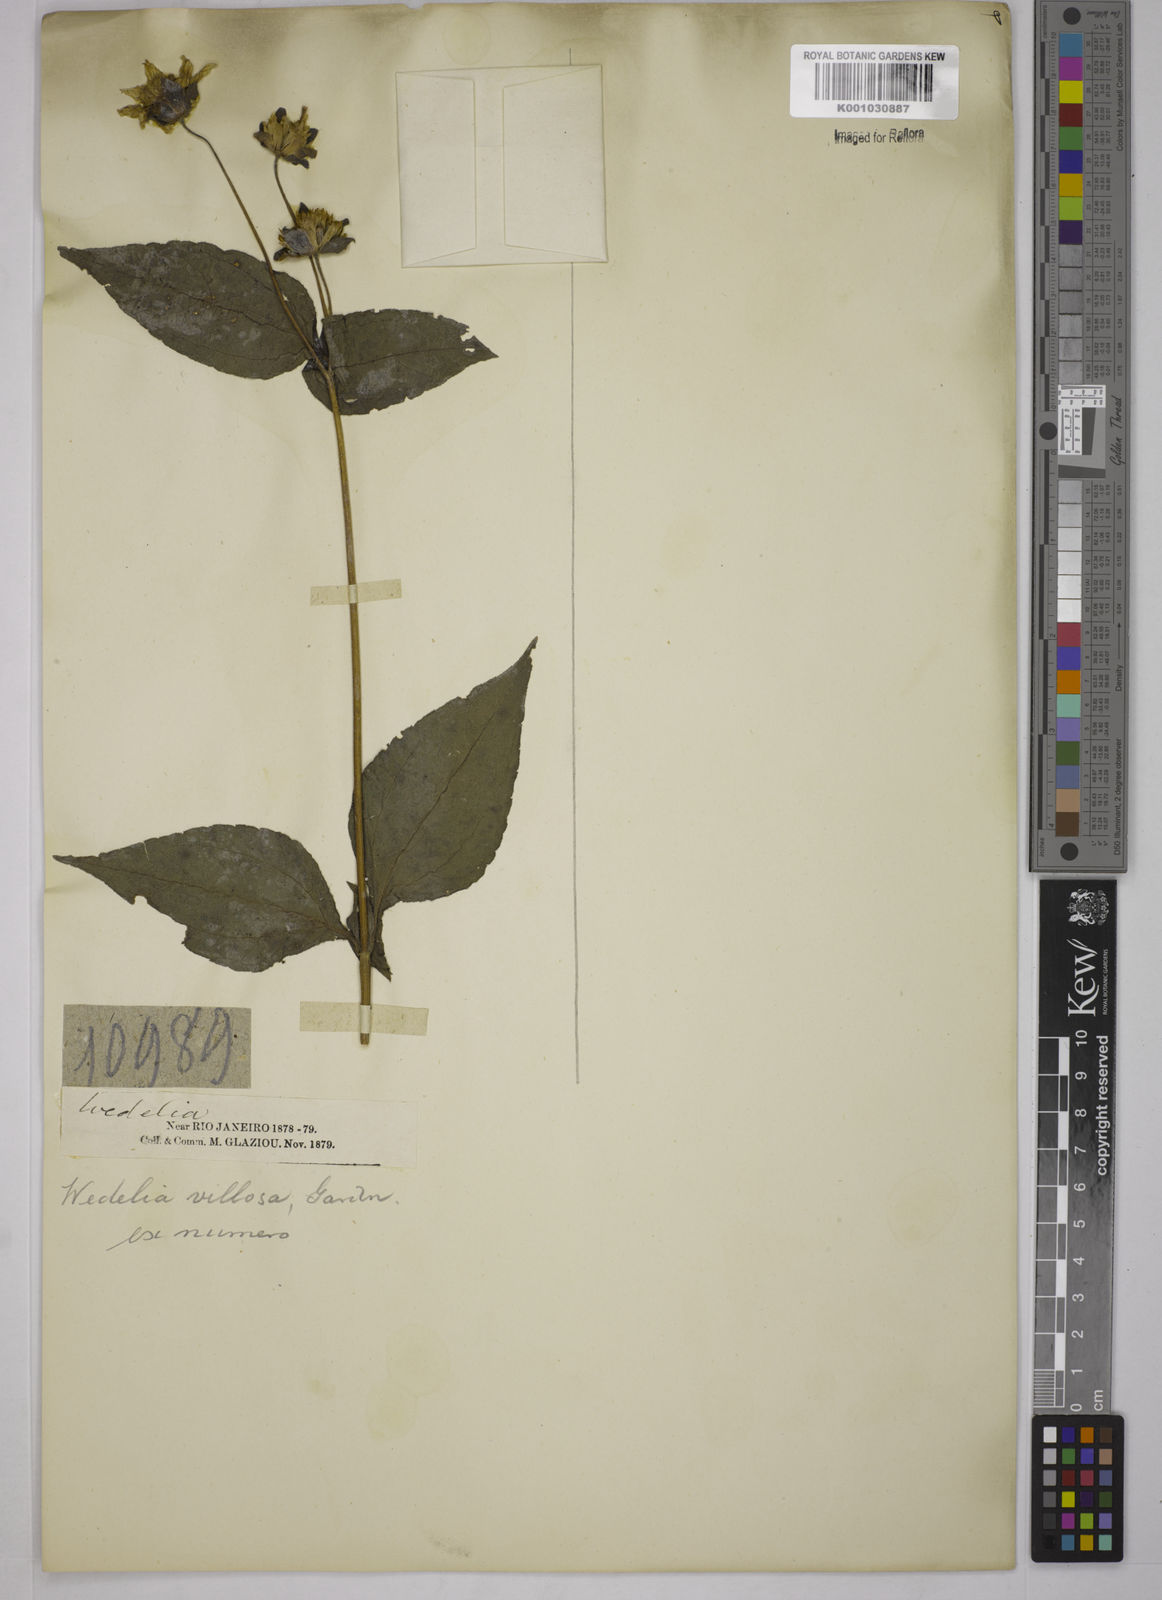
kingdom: Plantae
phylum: Tracheophyta
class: Magnoliopsida
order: Asterales
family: Asteraceae
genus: Wedelia
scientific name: Wedelia villosa
